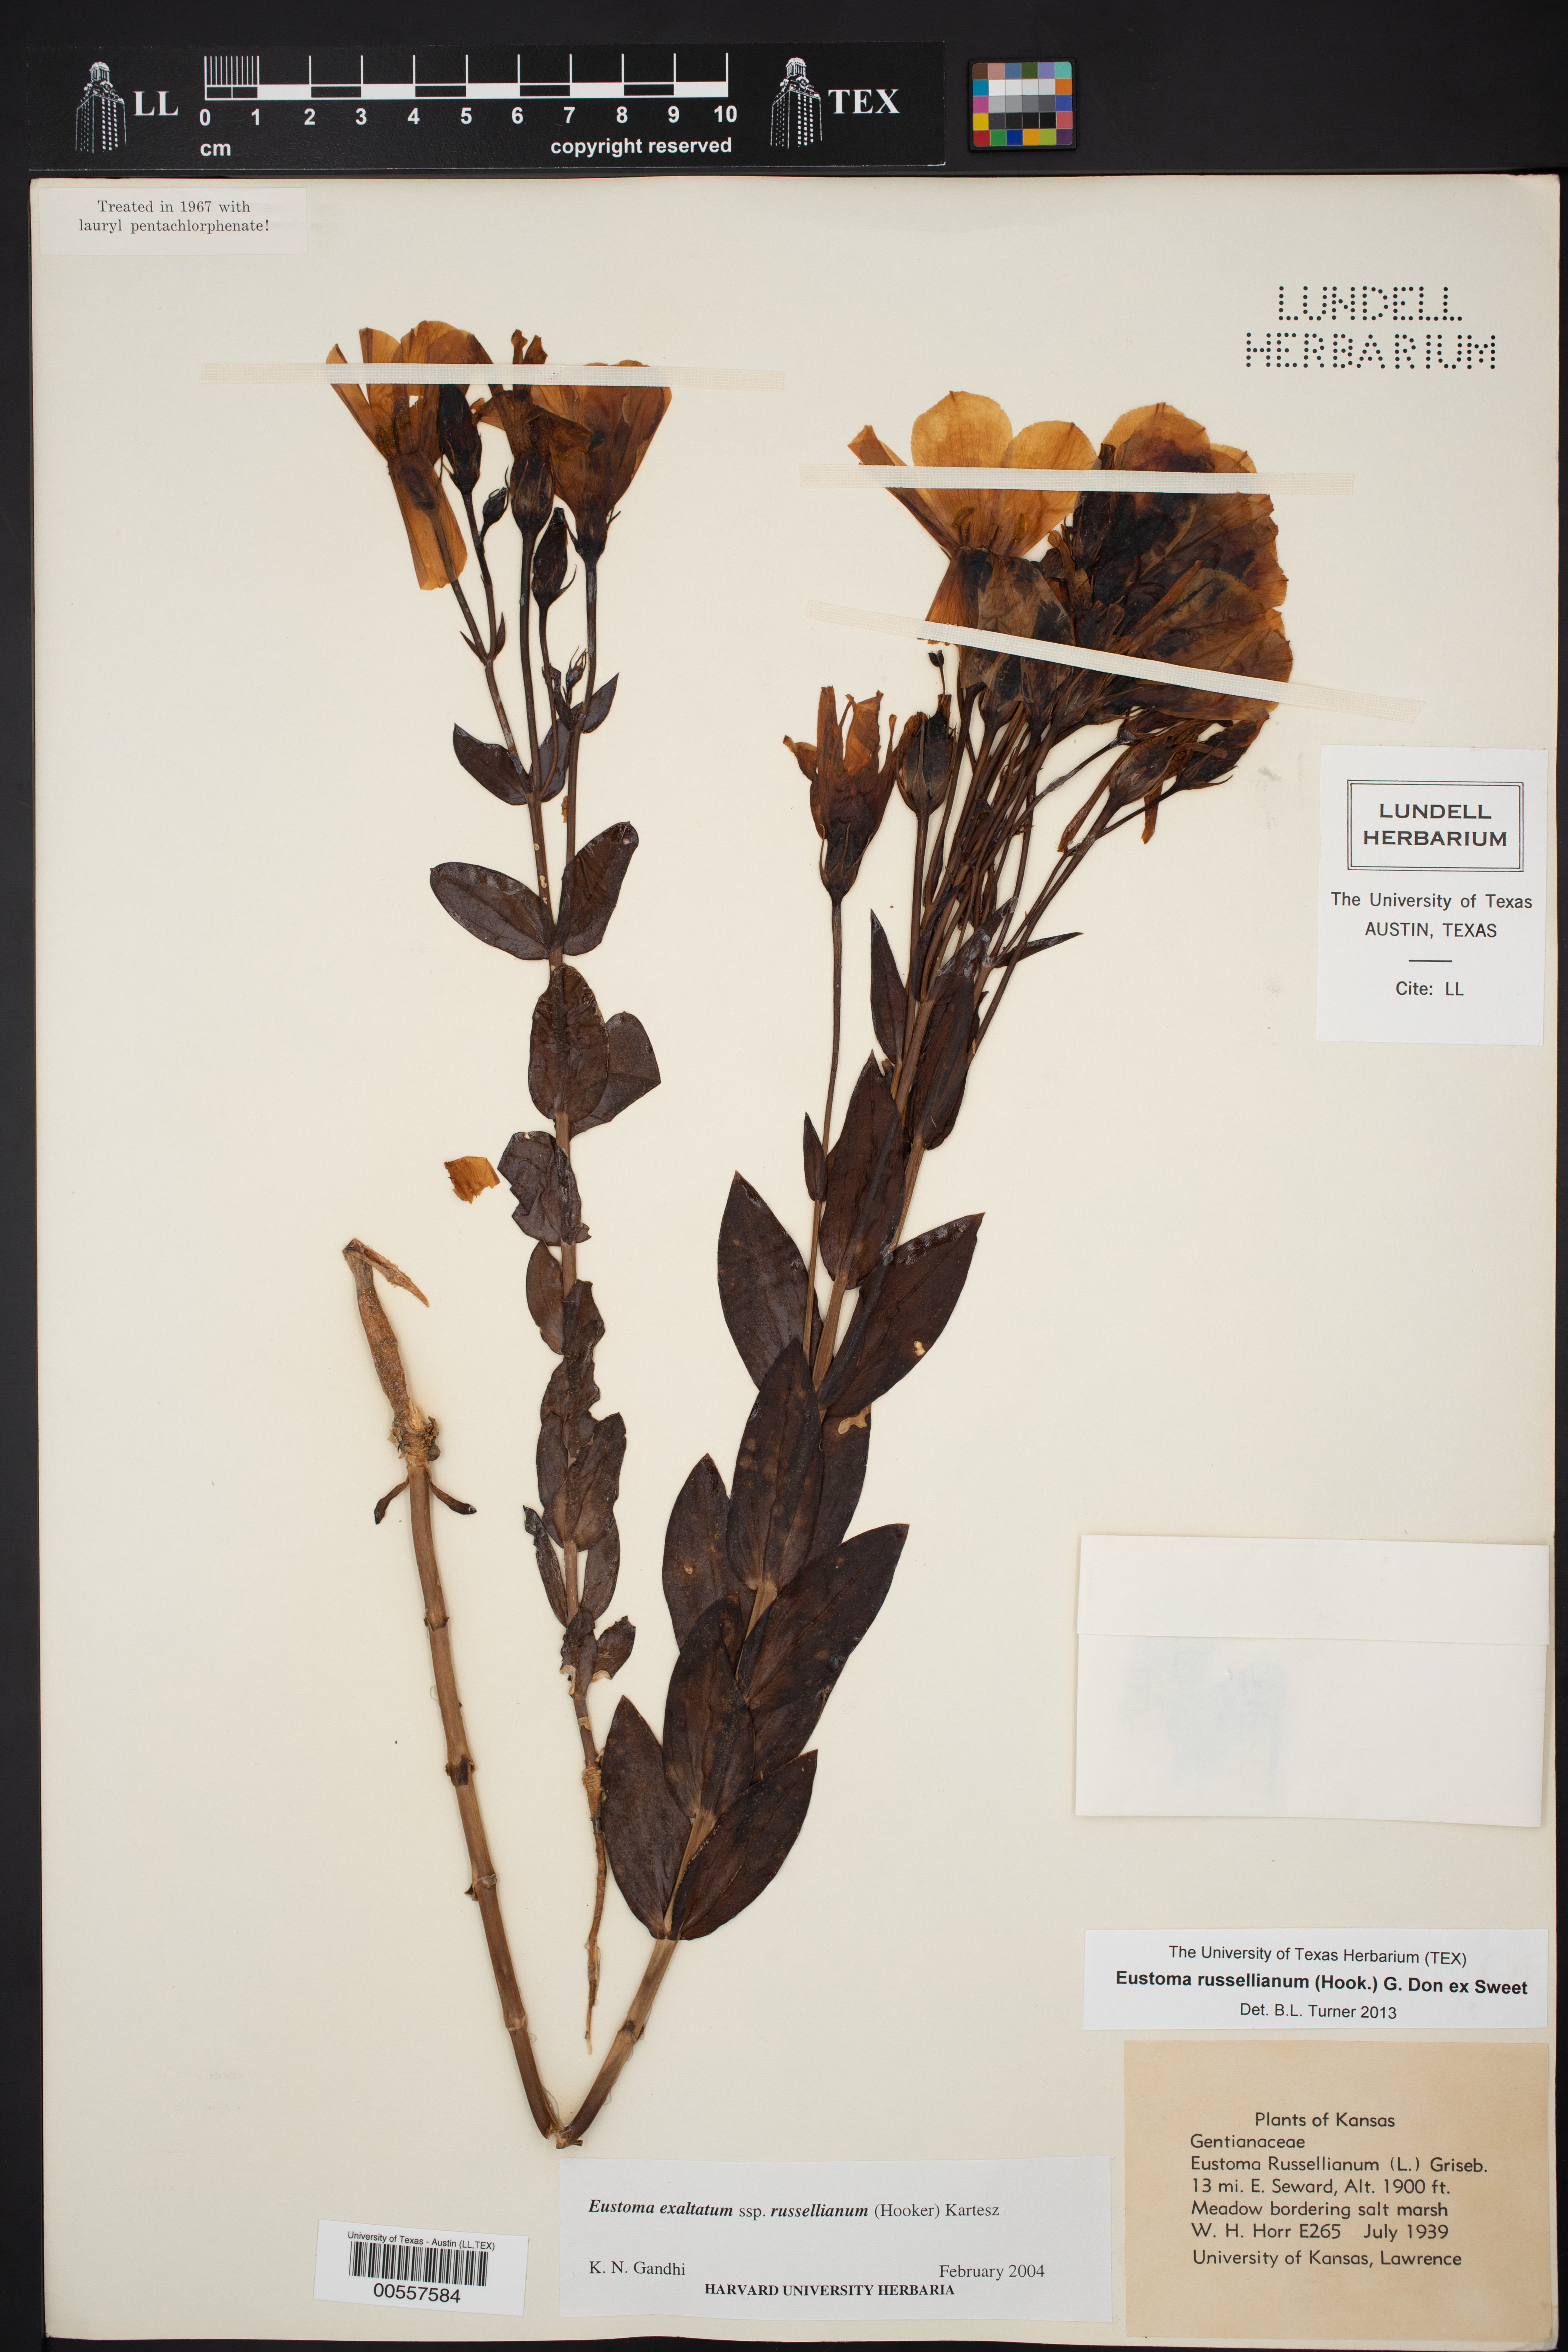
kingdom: Plantae
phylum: Tracheophyta
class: Magnoliopsida
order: Gentianales
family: Gentianaceae
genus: Eustoma
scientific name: Eustoma russellianum
